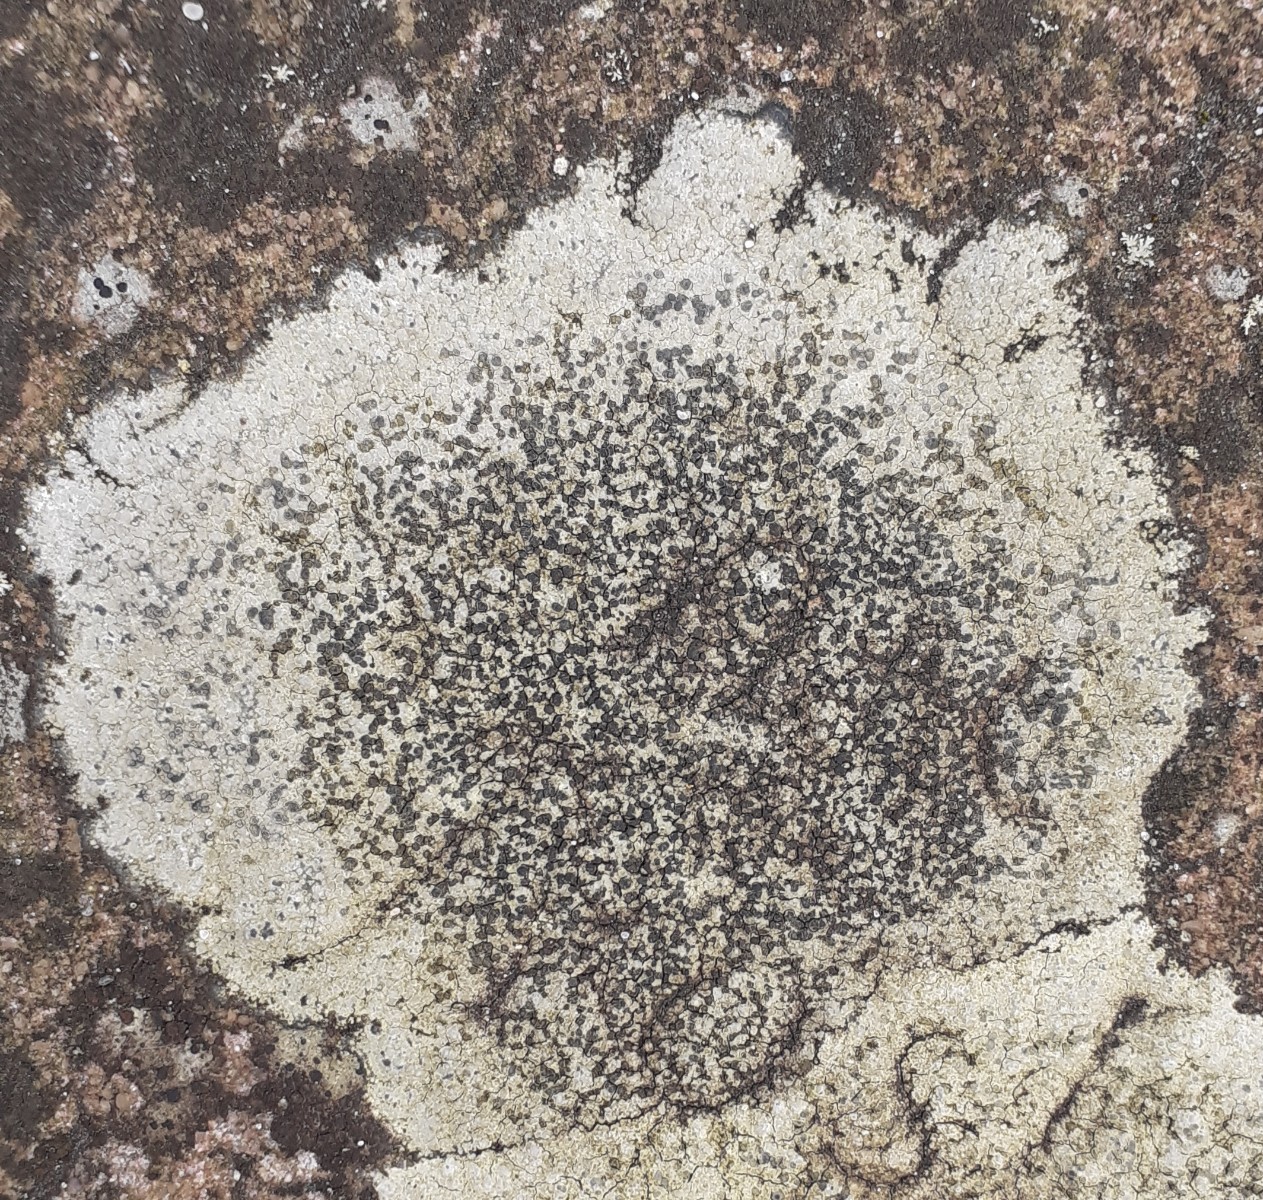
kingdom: Fungi
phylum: Ascomycota
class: Lecanoromycetes
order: Lecideales
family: Lecideaceae
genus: Porpidia
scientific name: Porpidia
